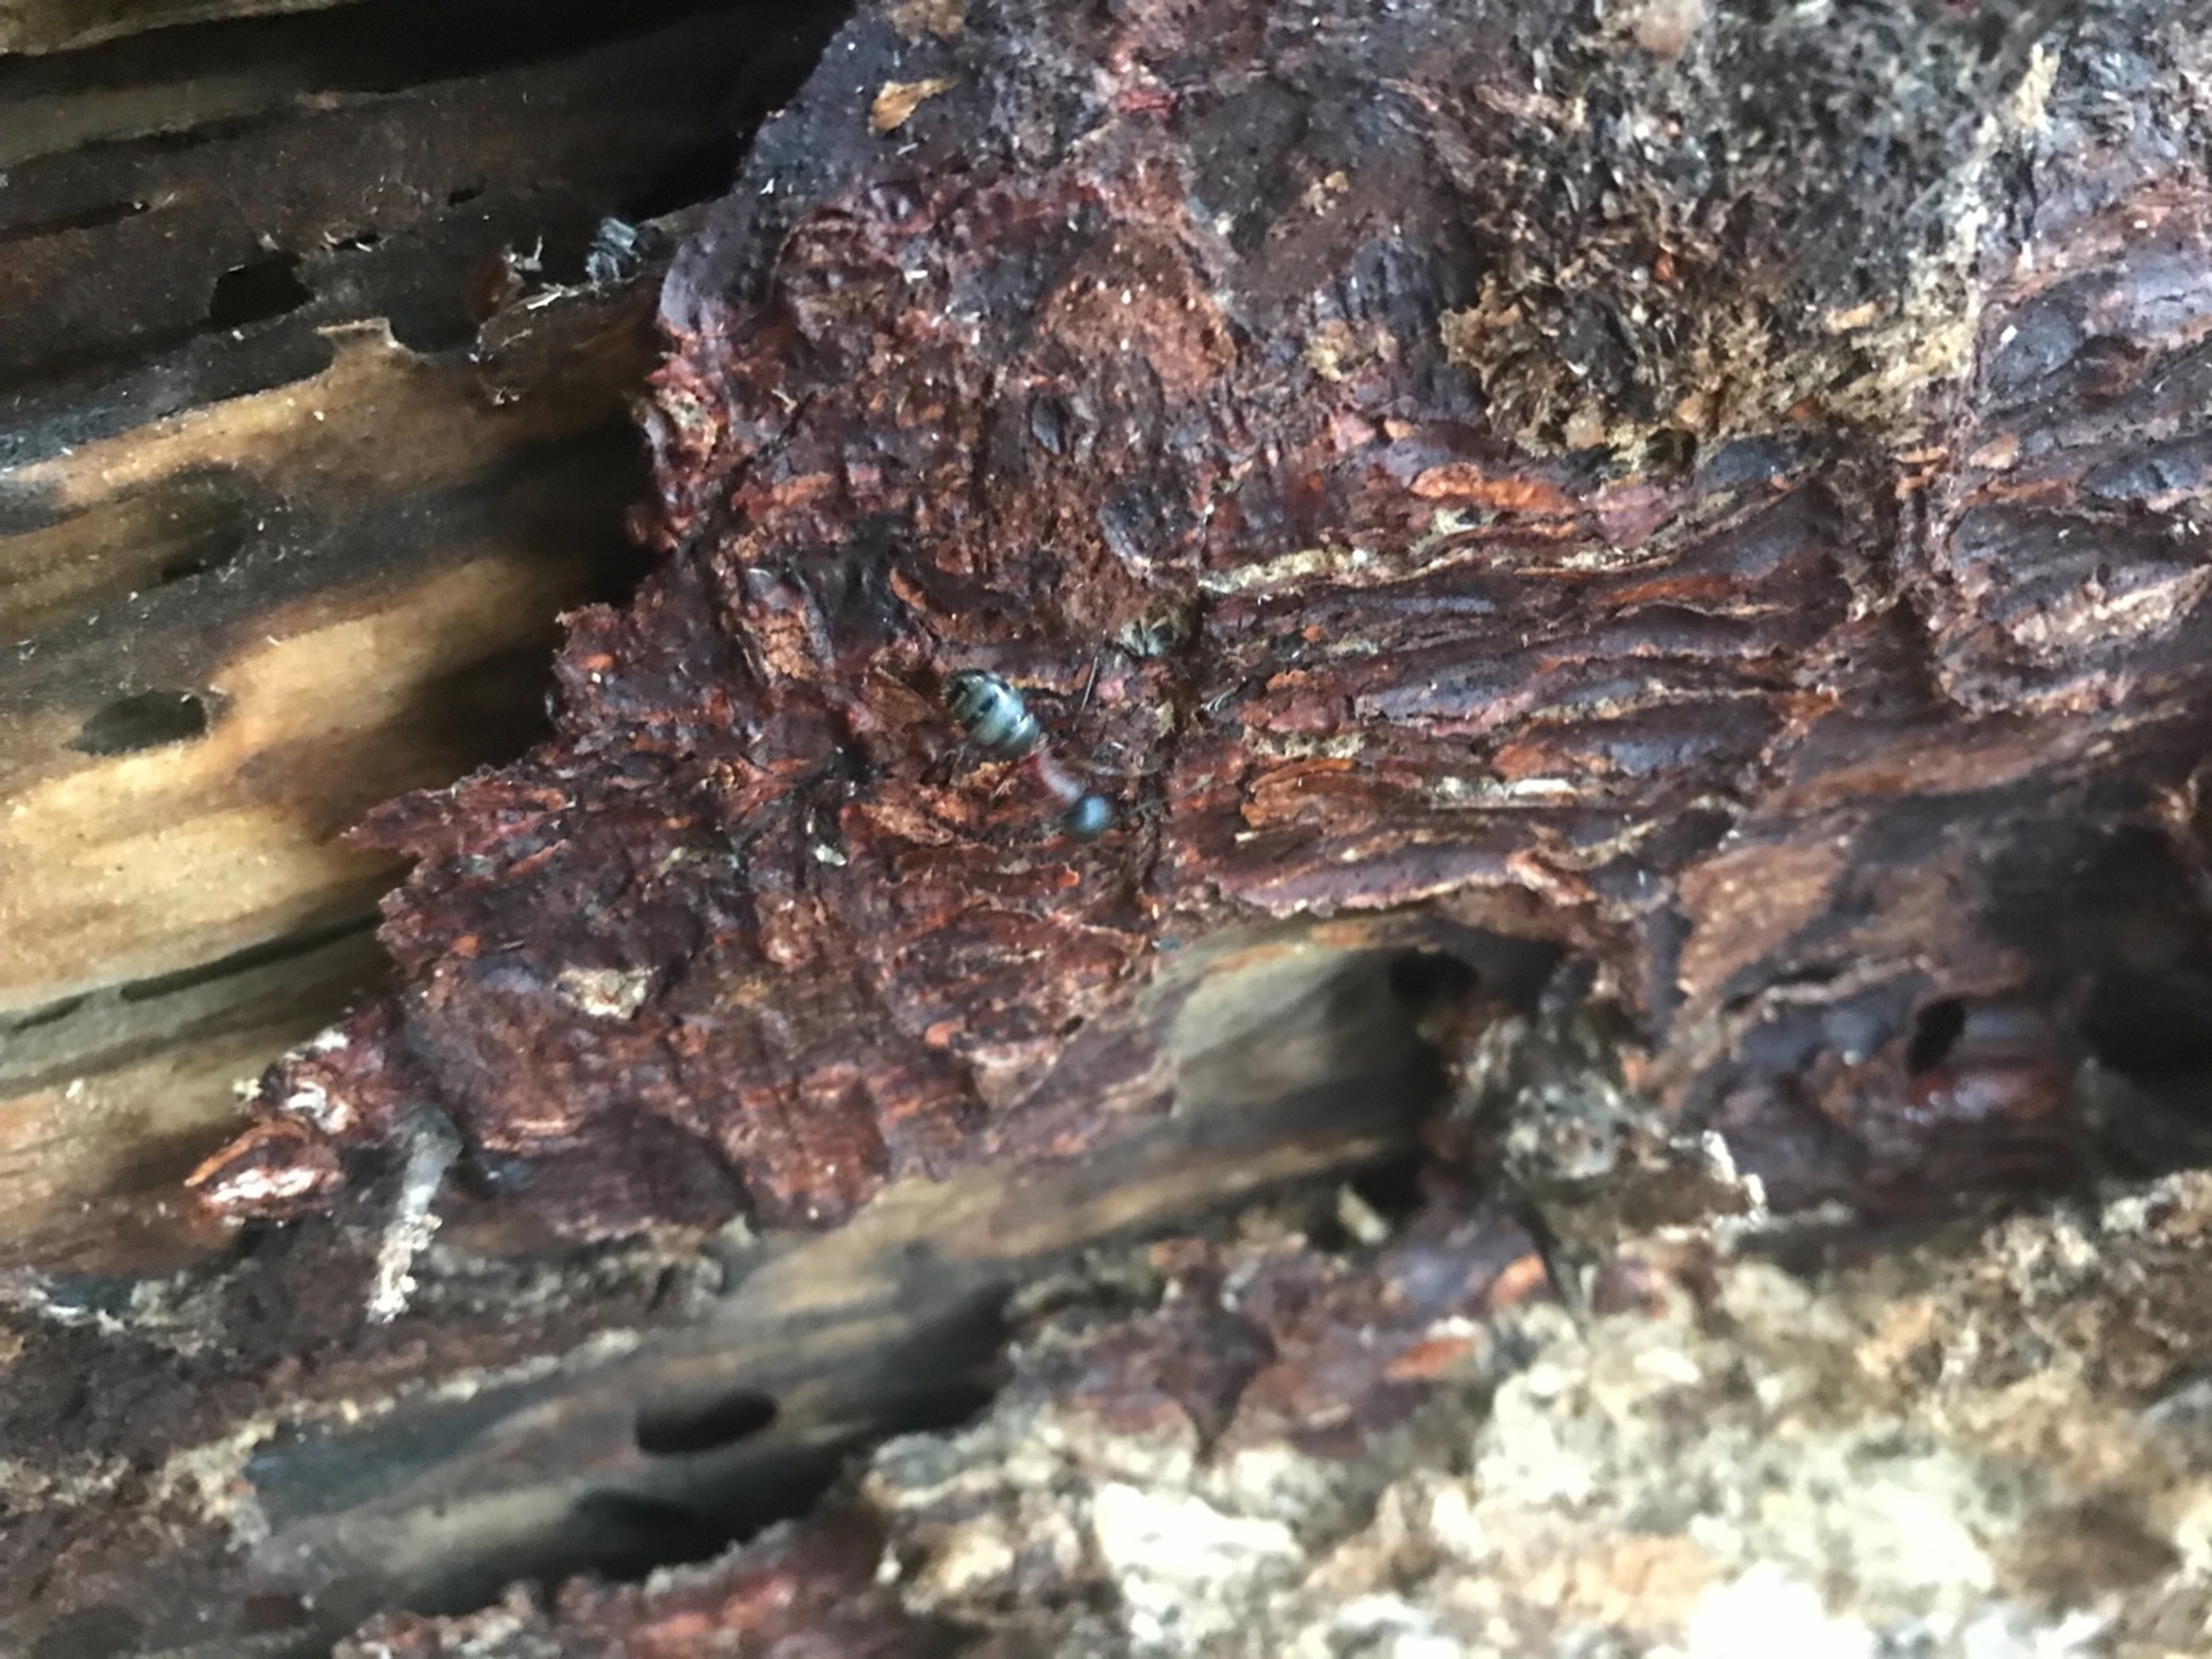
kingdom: Animalia
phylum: Arthropoda
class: Insecta
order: Hymenoptera
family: Formicidae
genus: Camponotus
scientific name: Camponotus herculeanus
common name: Herkulesmyre
